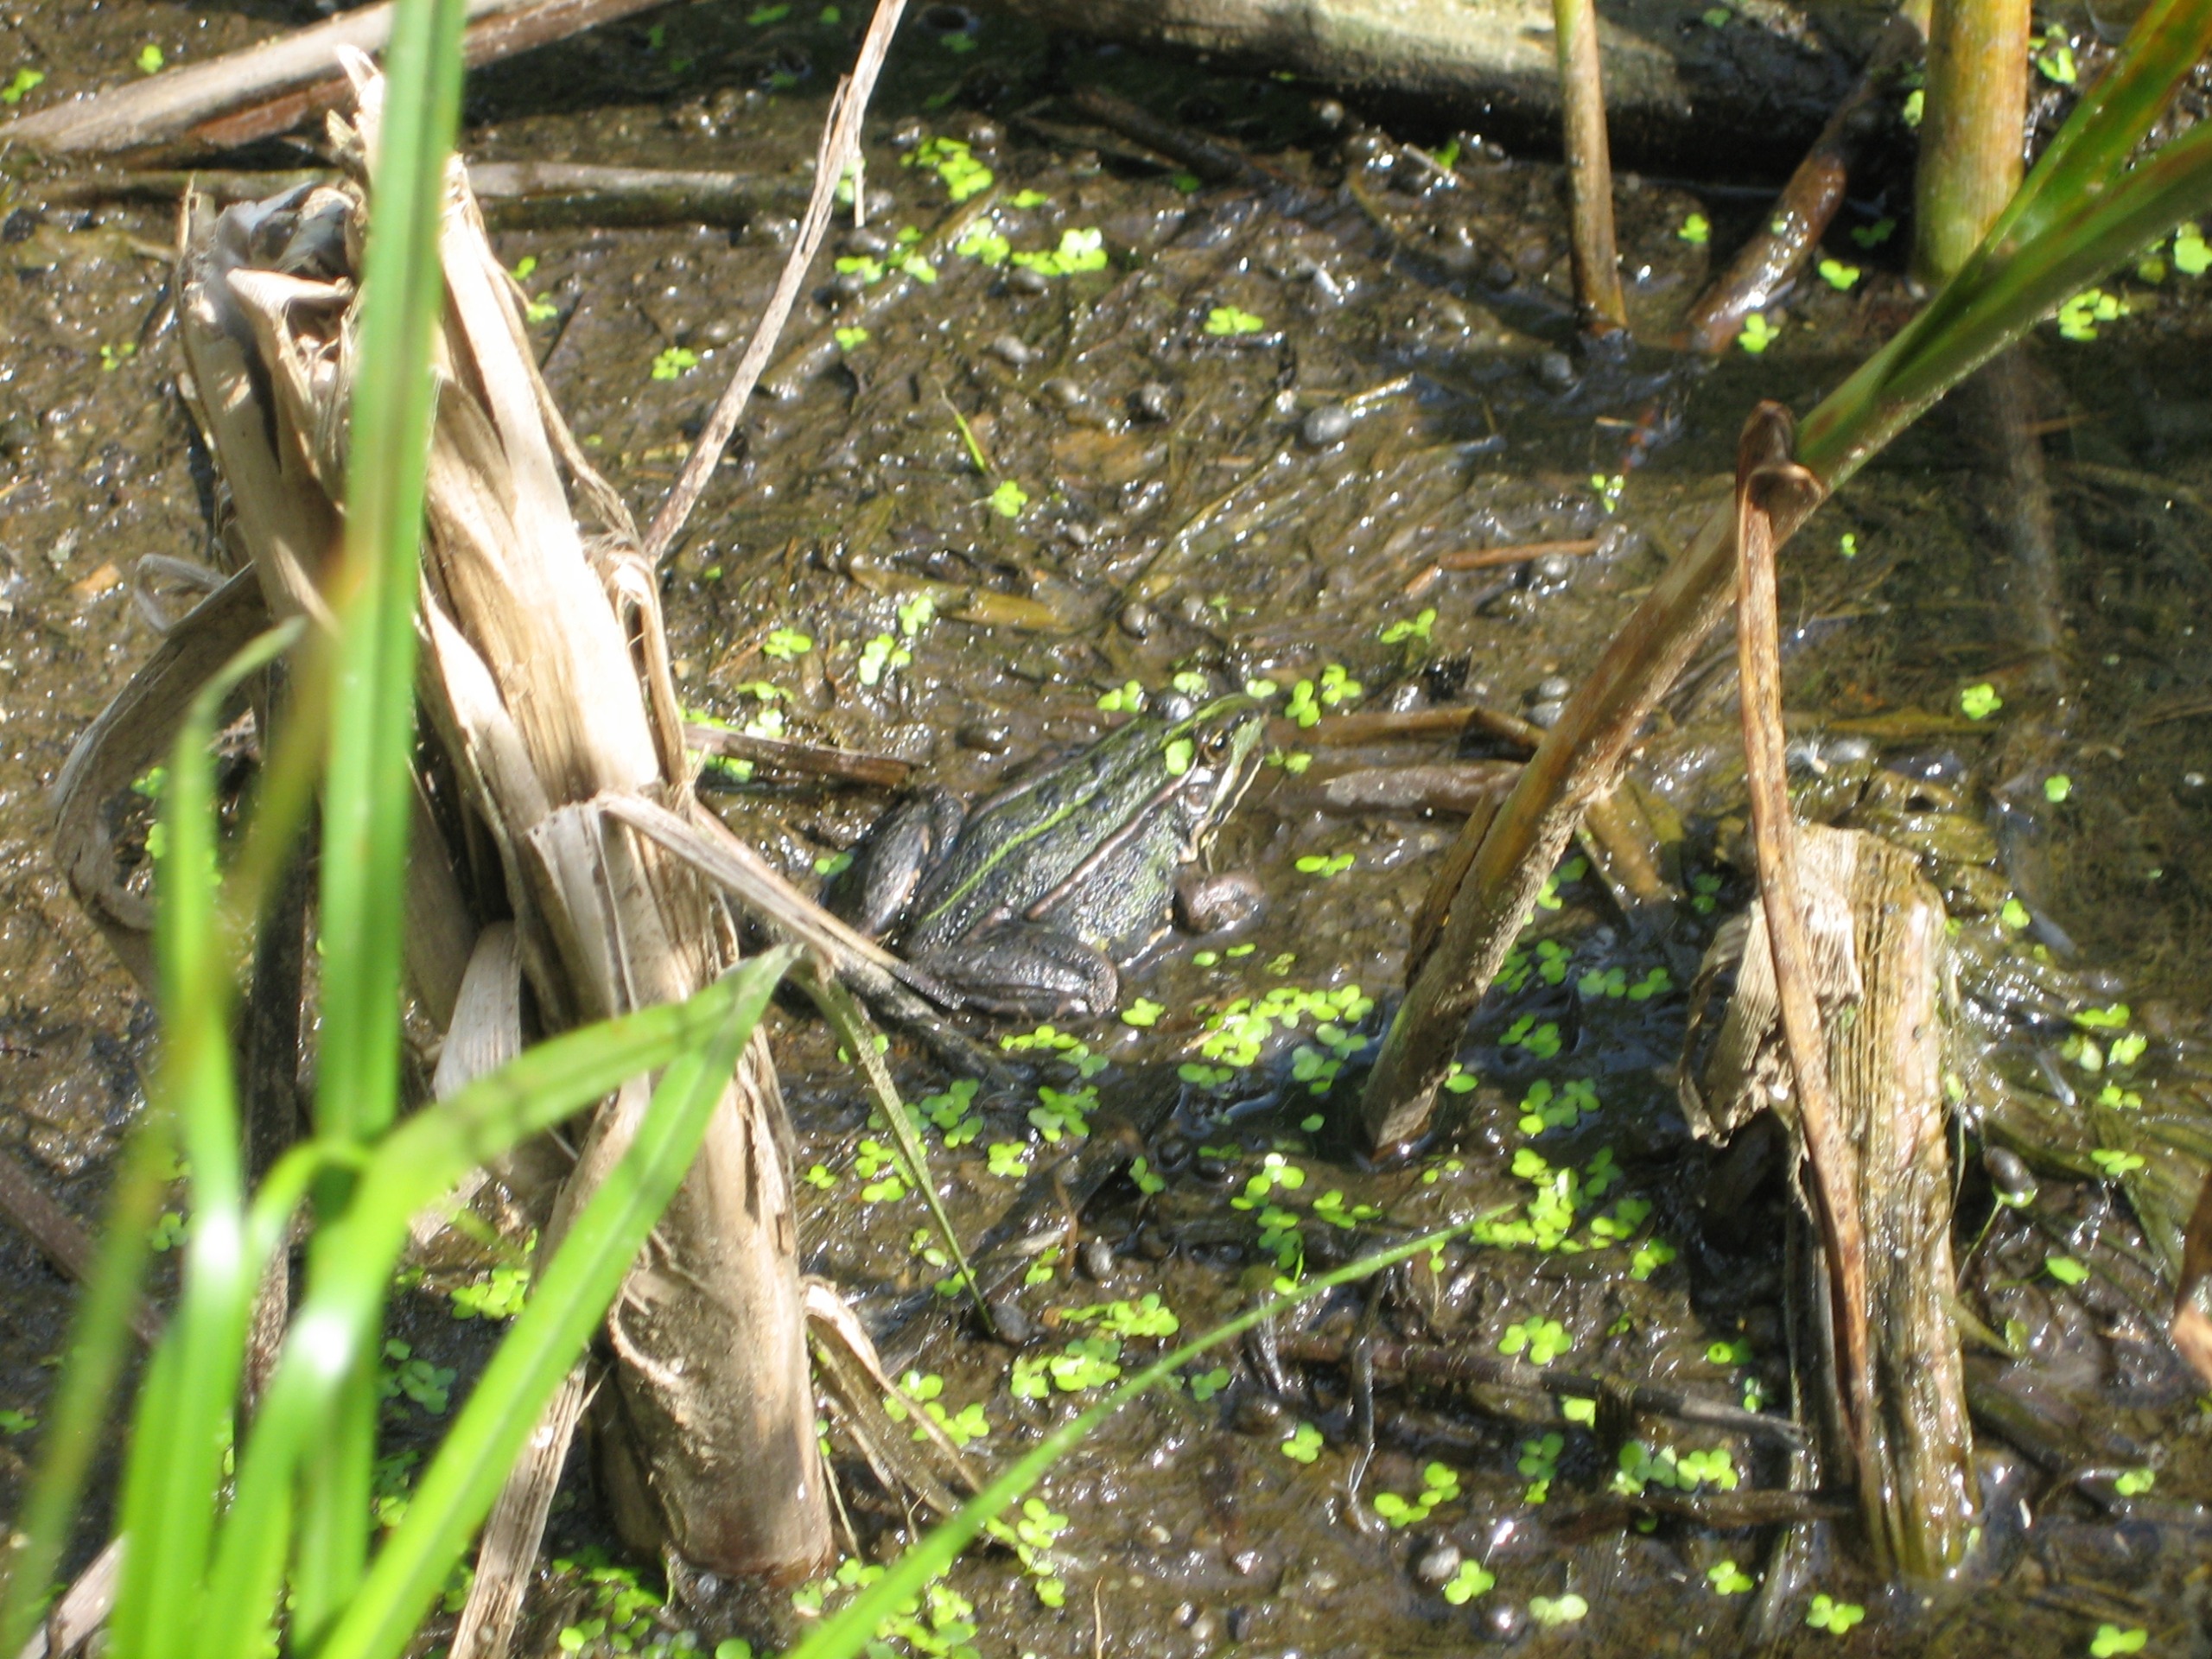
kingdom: Animalia
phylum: Chordata
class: Amphibia
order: Anura
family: Ranidae
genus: Pelophylax
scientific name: Pelophylax lessonae
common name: Grøn frø
